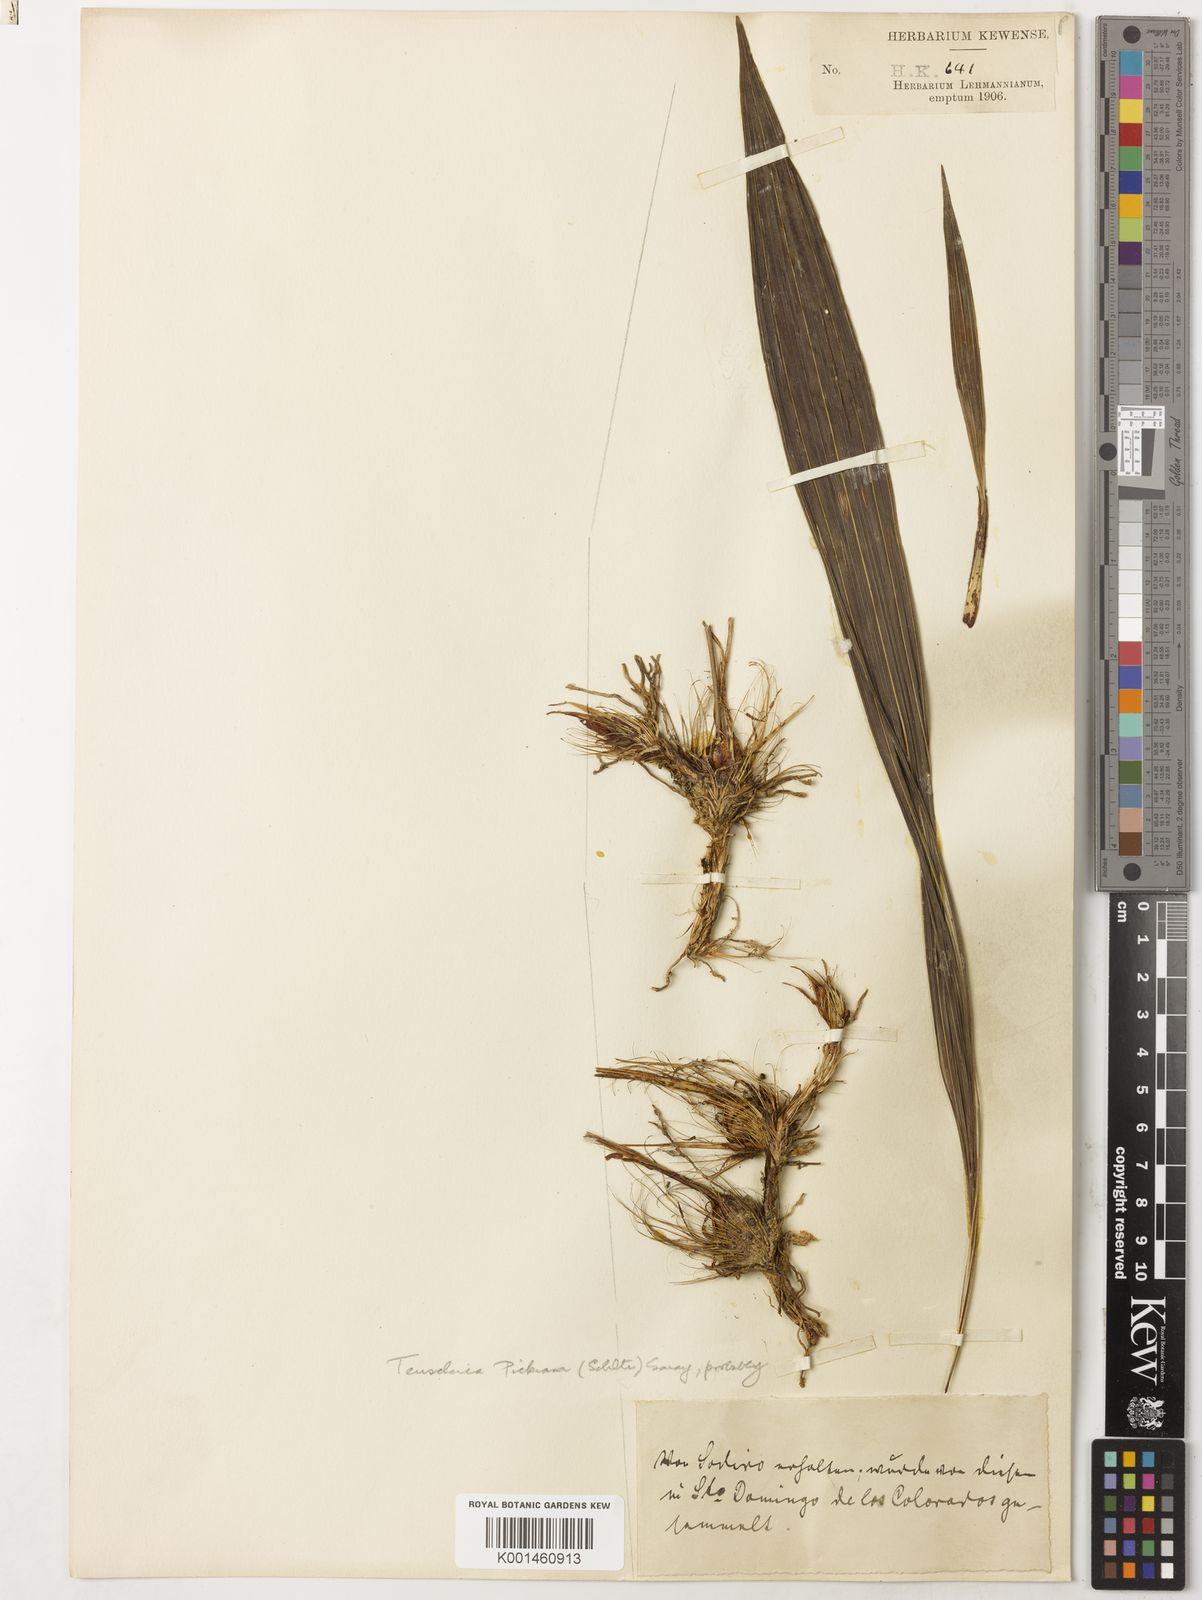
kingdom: Plantae
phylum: Tracheophyta
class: Liliopsida
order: Asparagales
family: Orchidaceae
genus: Teuscheria
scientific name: Teuscheria pickiana
